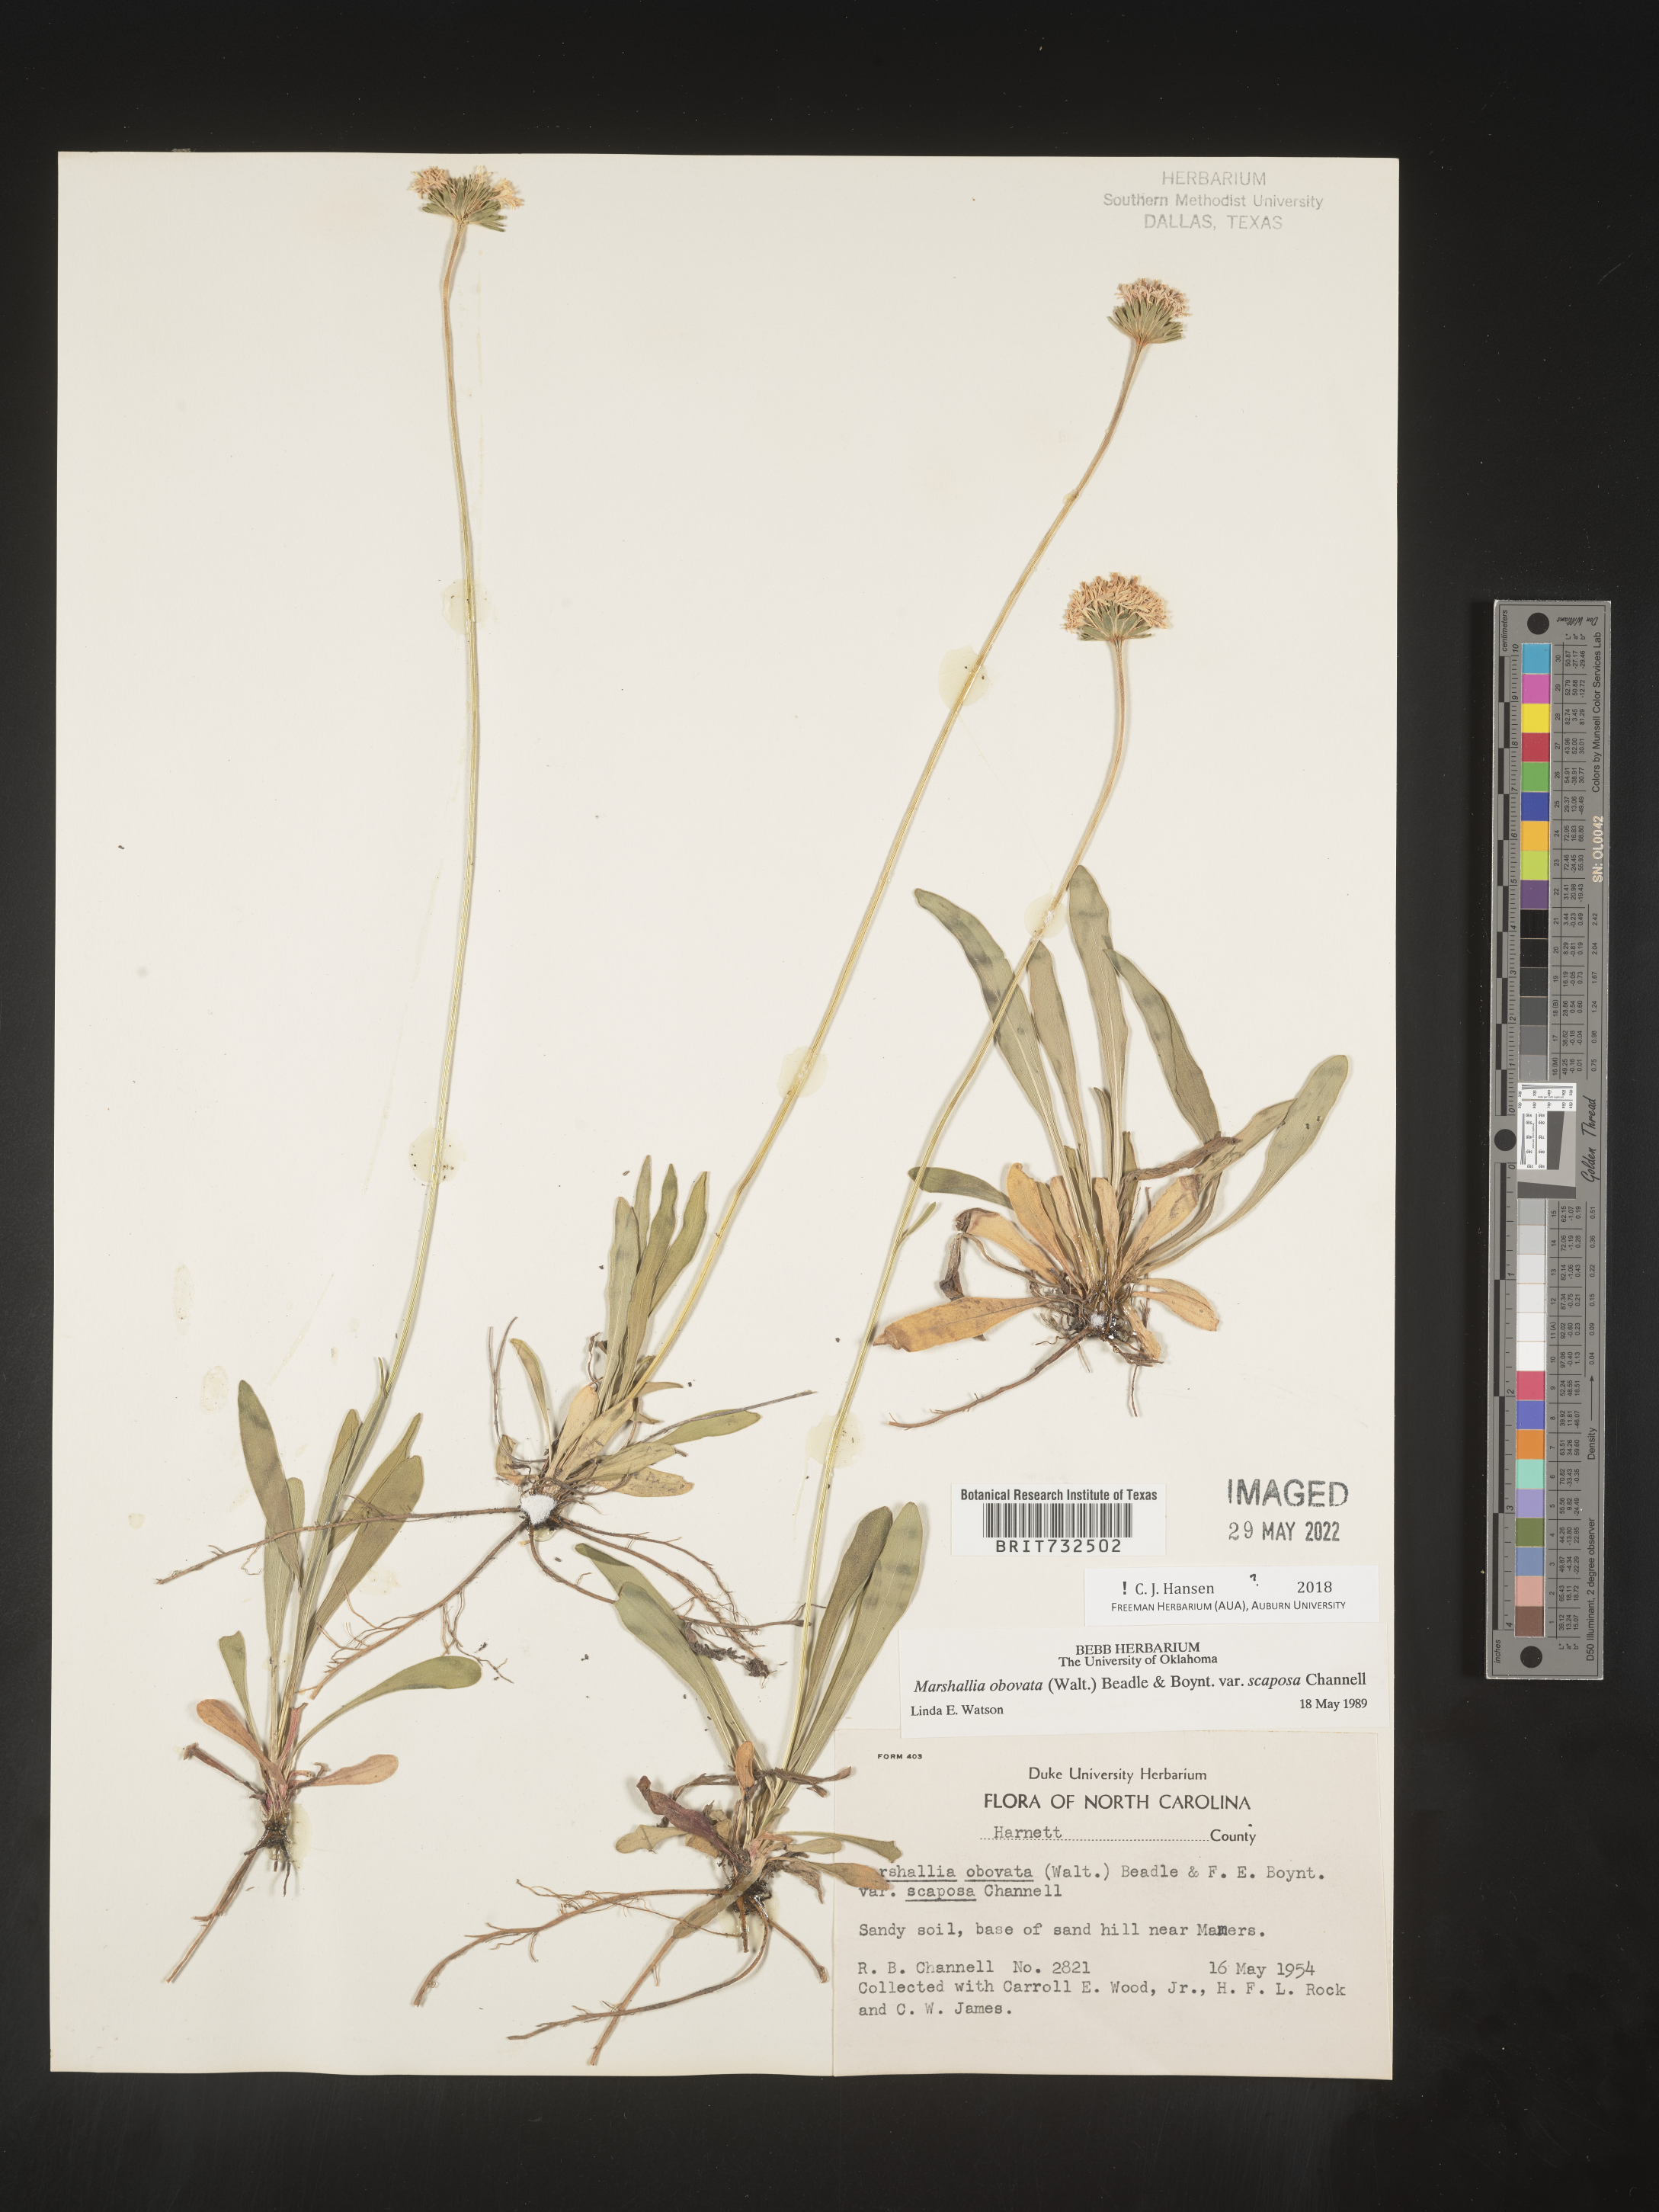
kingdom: Plantae
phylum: Tracheophyta
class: Magnoliopsida
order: Asterales
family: Asteraceae
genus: Marshallia
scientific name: Marshallia obovata
